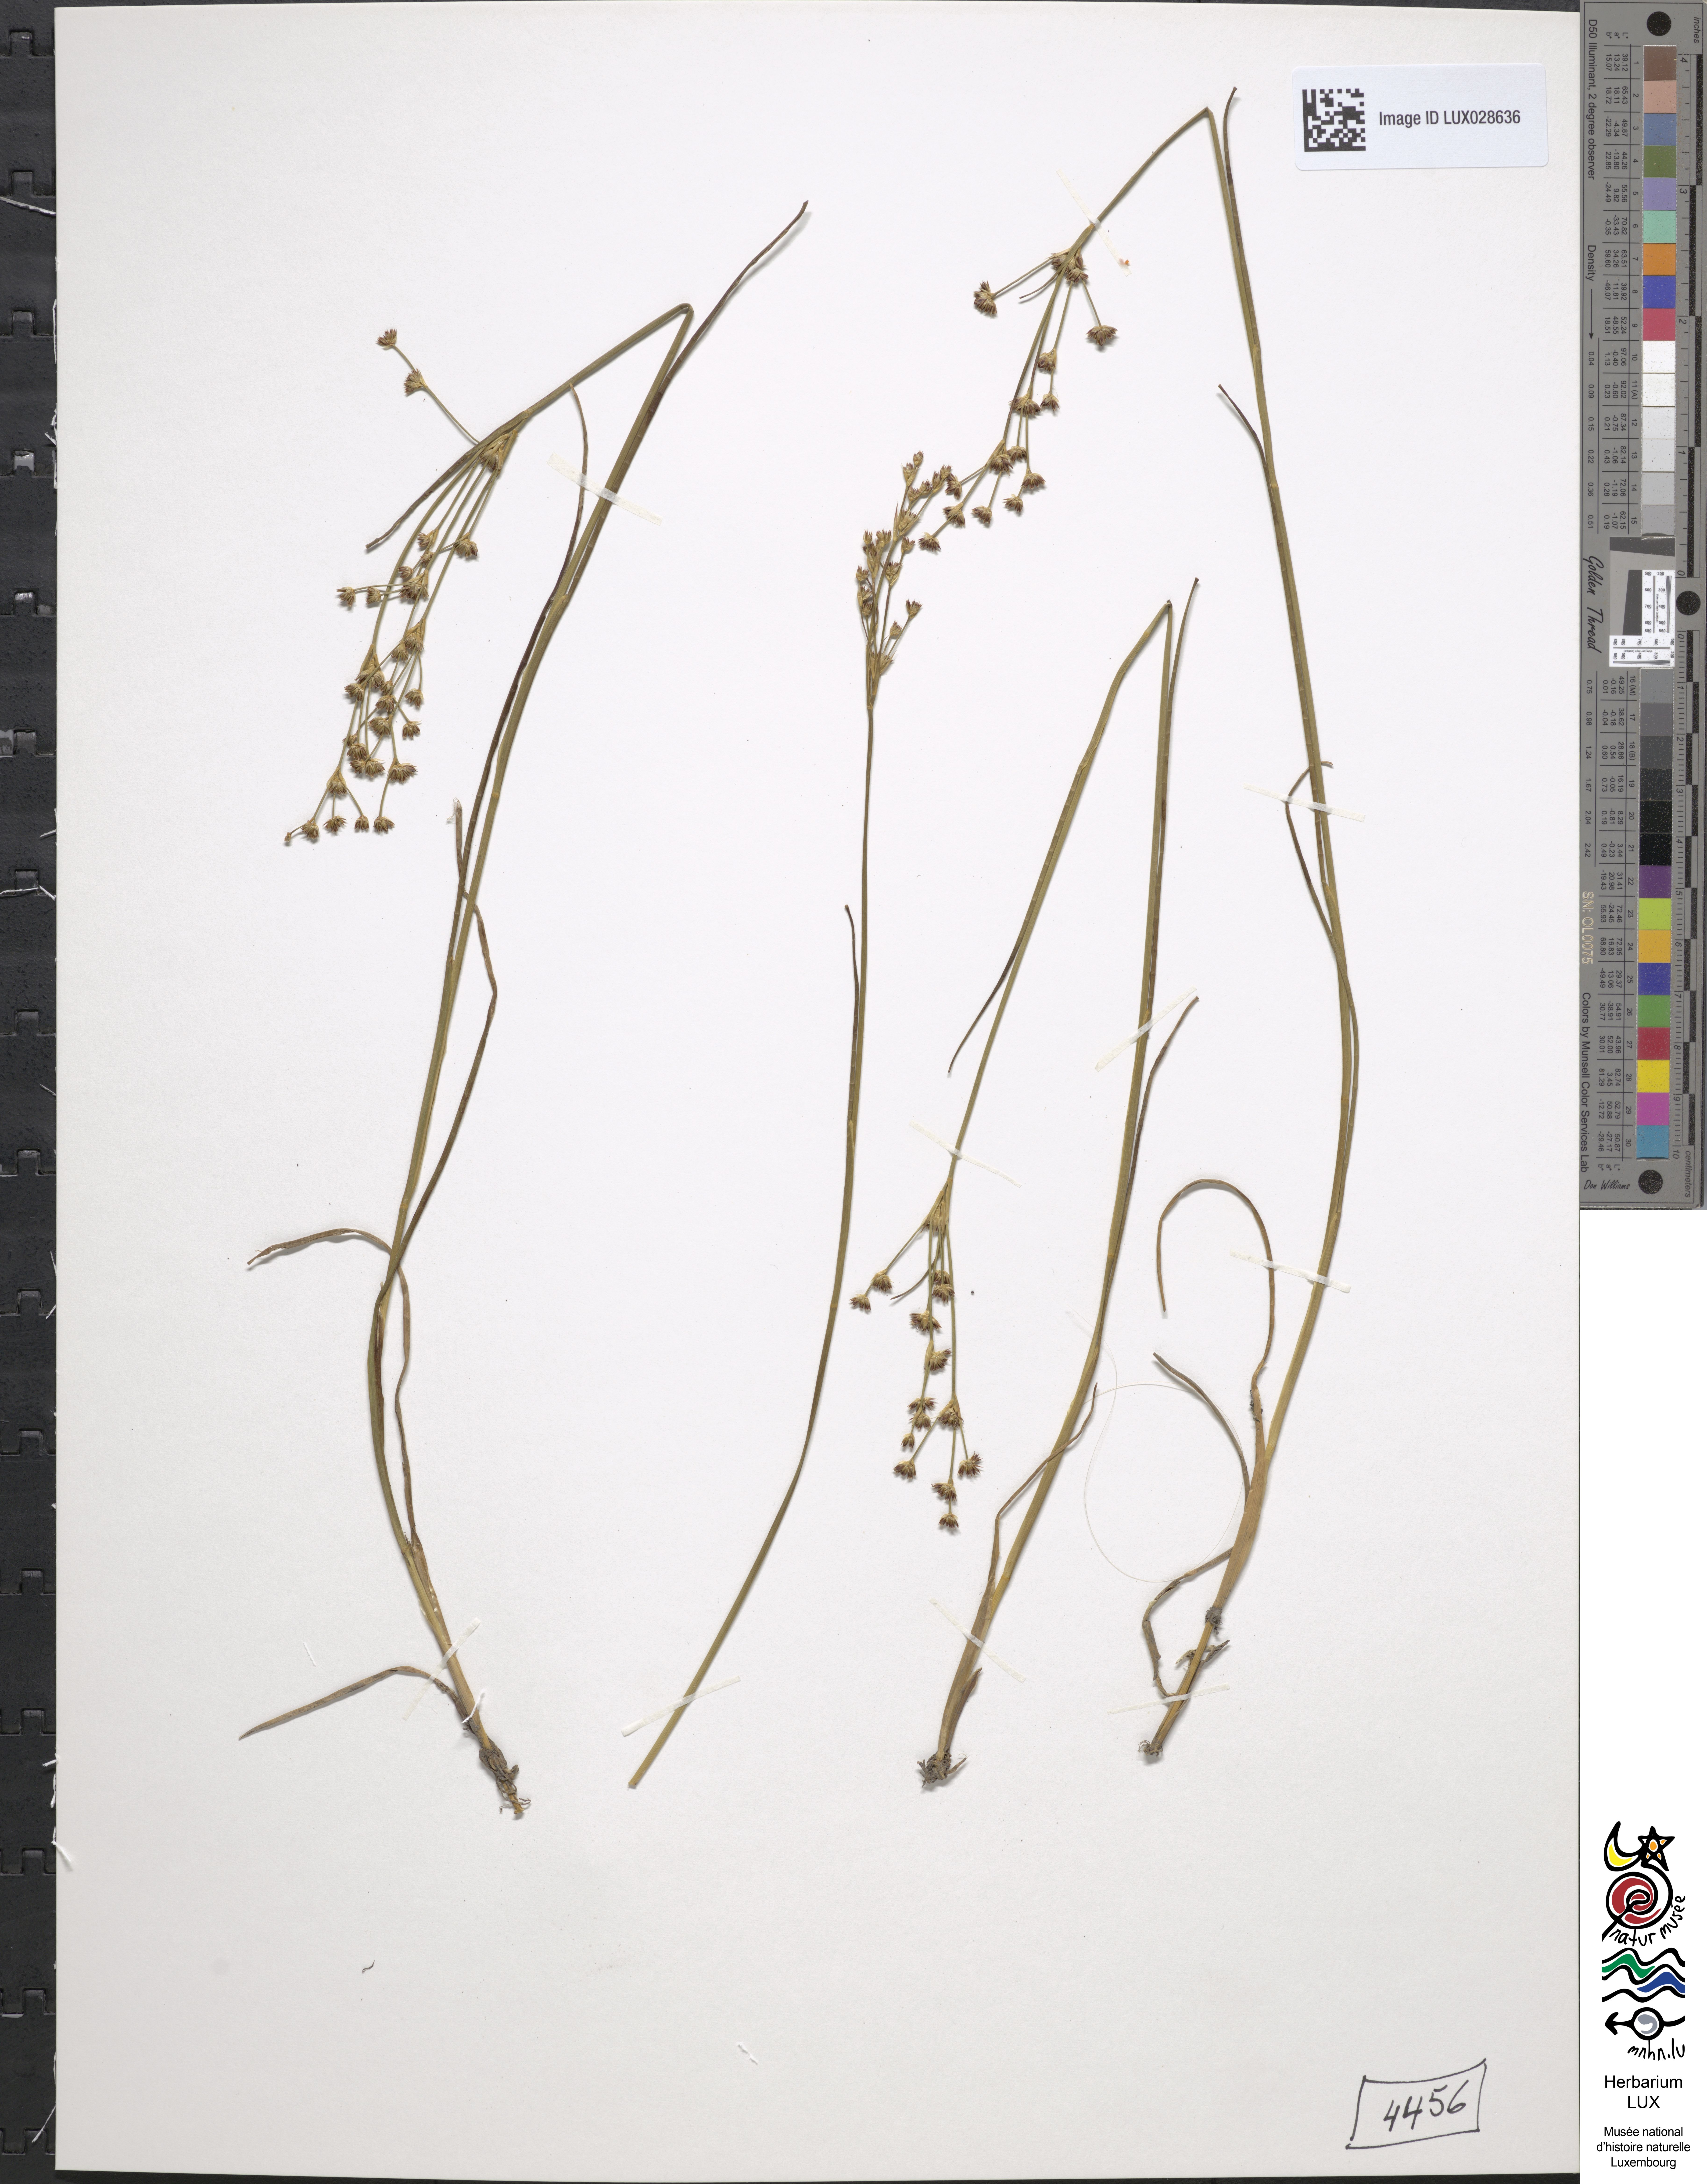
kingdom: Plantae
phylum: Tracheophyta
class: Liliopsida
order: Poales
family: Juncaceae
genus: Juncus
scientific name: Juncus articulatus
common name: Jointed rush
